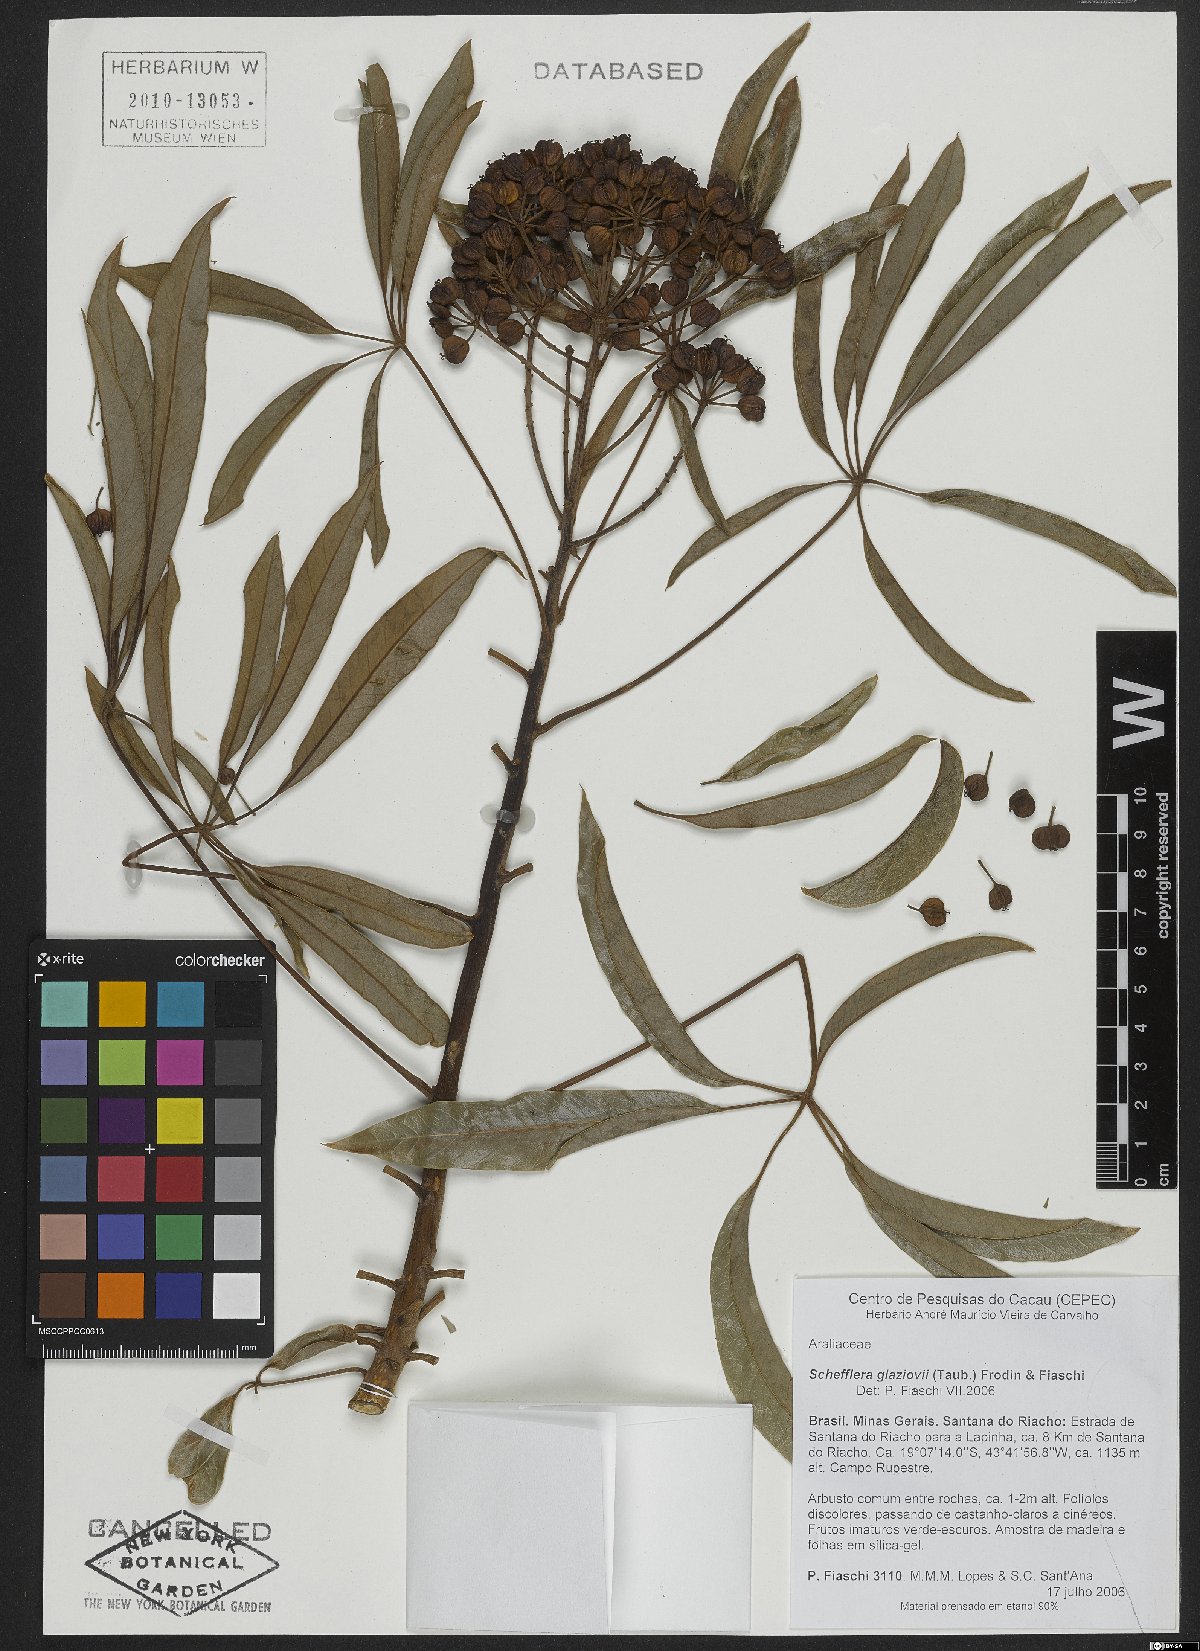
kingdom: Plantae
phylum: Tracheophyta
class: Magnoliopsida
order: Apiales
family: Araliaceae
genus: Didymopanax
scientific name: Didymopanax glaziovii
